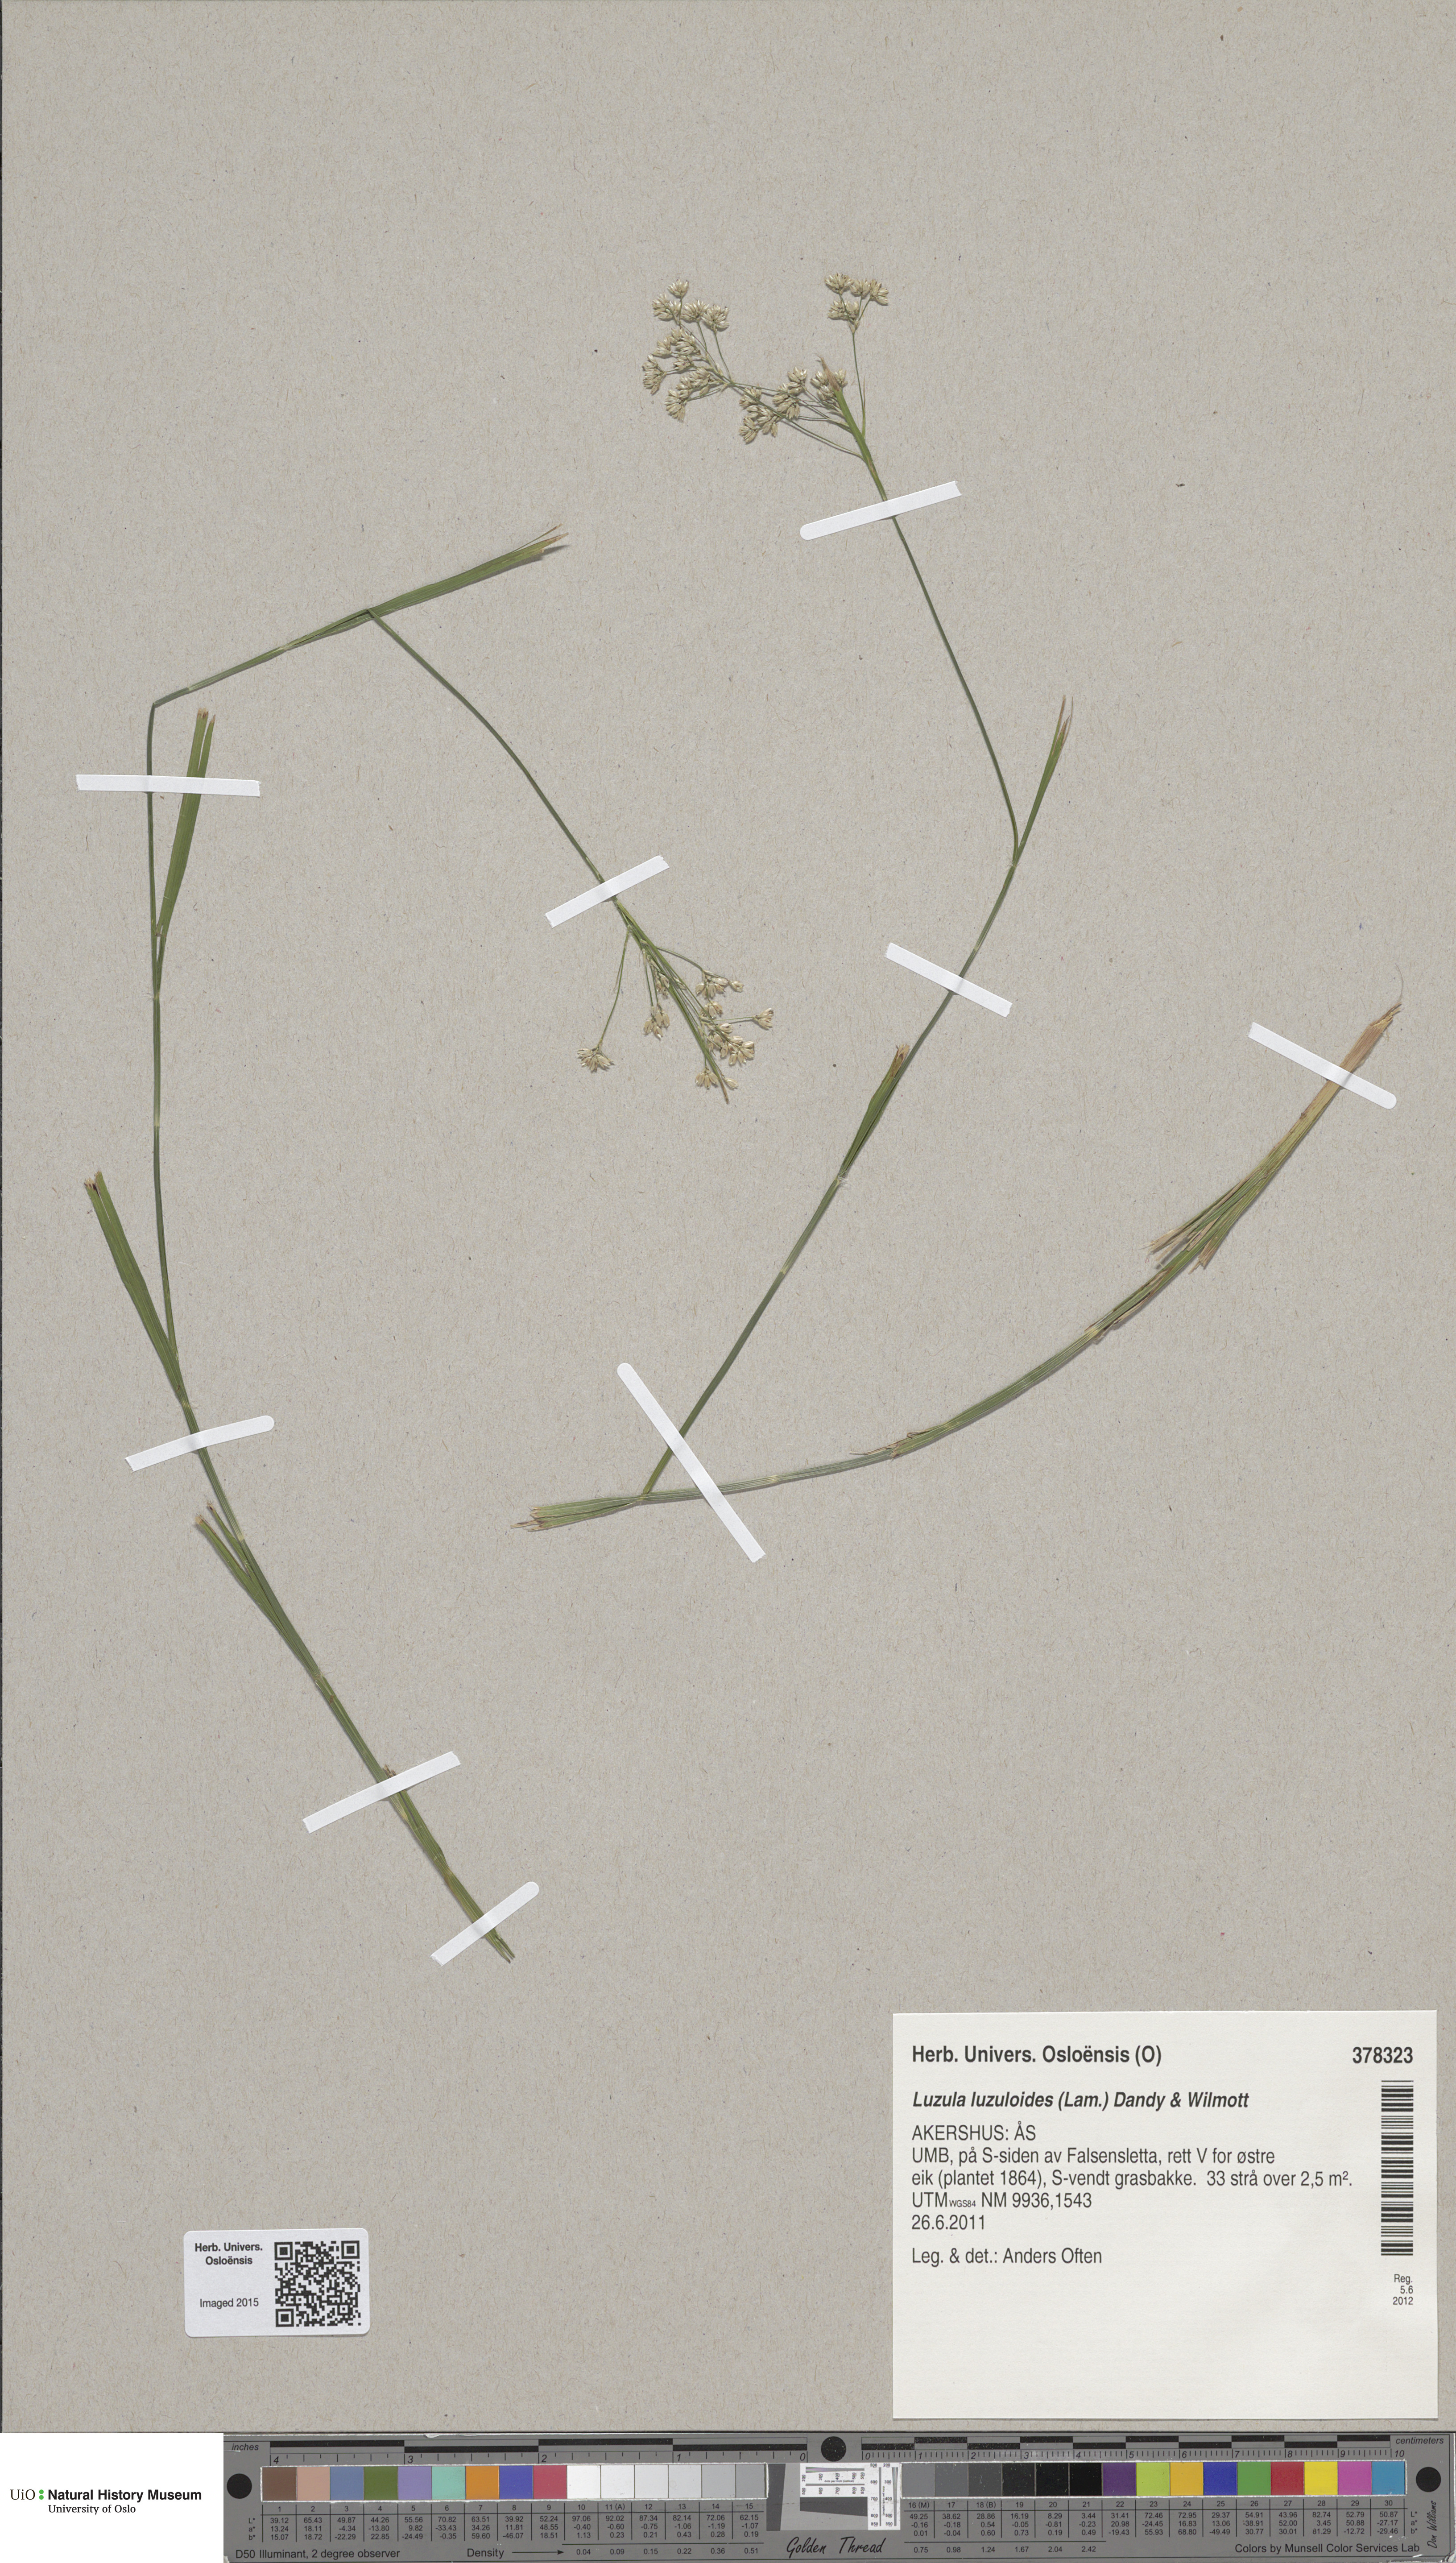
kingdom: Plantae
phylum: Tracheophyta
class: Liliopsida
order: Poales
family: Juncaceae
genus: Luzula
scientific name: Luzula luzuloides
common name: White wood-rush
